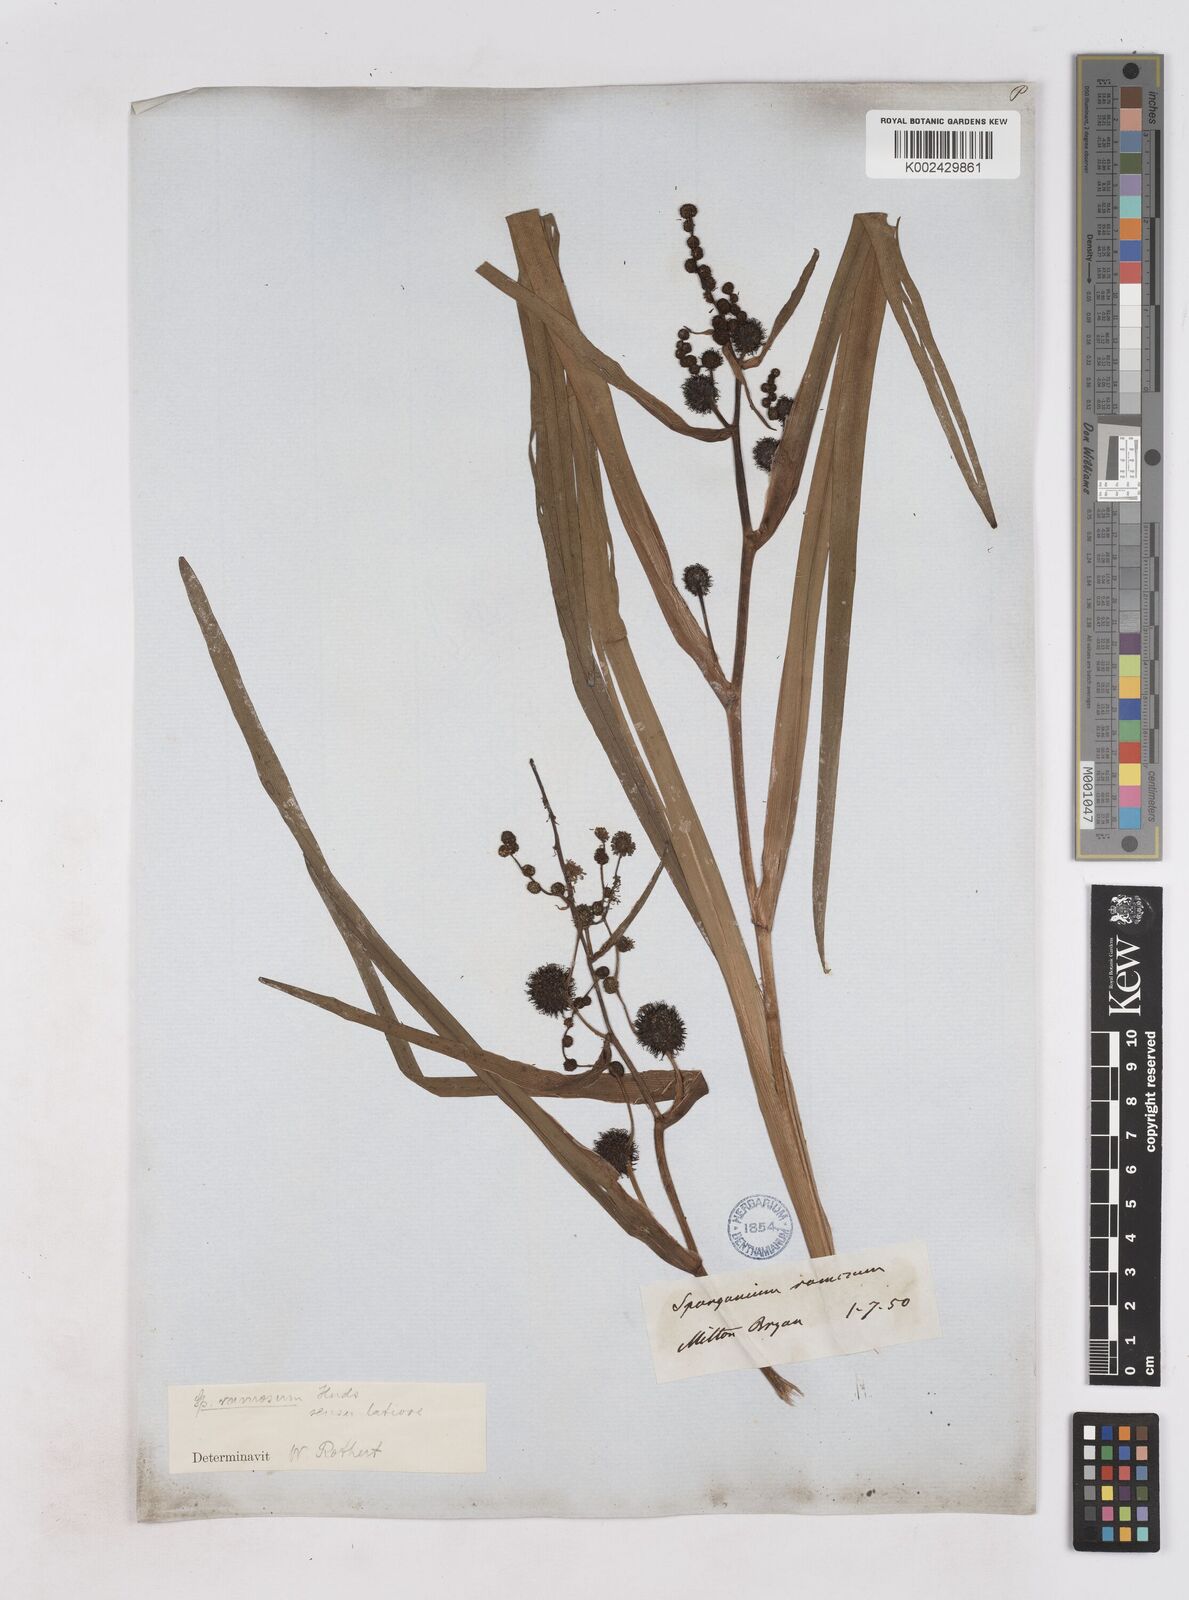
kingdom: Plantae
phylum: Tracheophyta
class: Liliopsida
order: Poales
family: Typhaceae
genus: Sparganium
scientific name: Sparganium erectum
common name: Branched bur-reed
